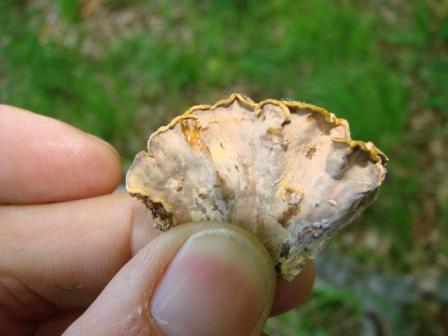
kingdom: Fungi
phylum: Basidiomycota
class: Agaricomycetes
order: Russulales
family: Stereaceae
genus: Stereum
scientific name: Stereum subtomentosum
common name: smuk lædersvamp
